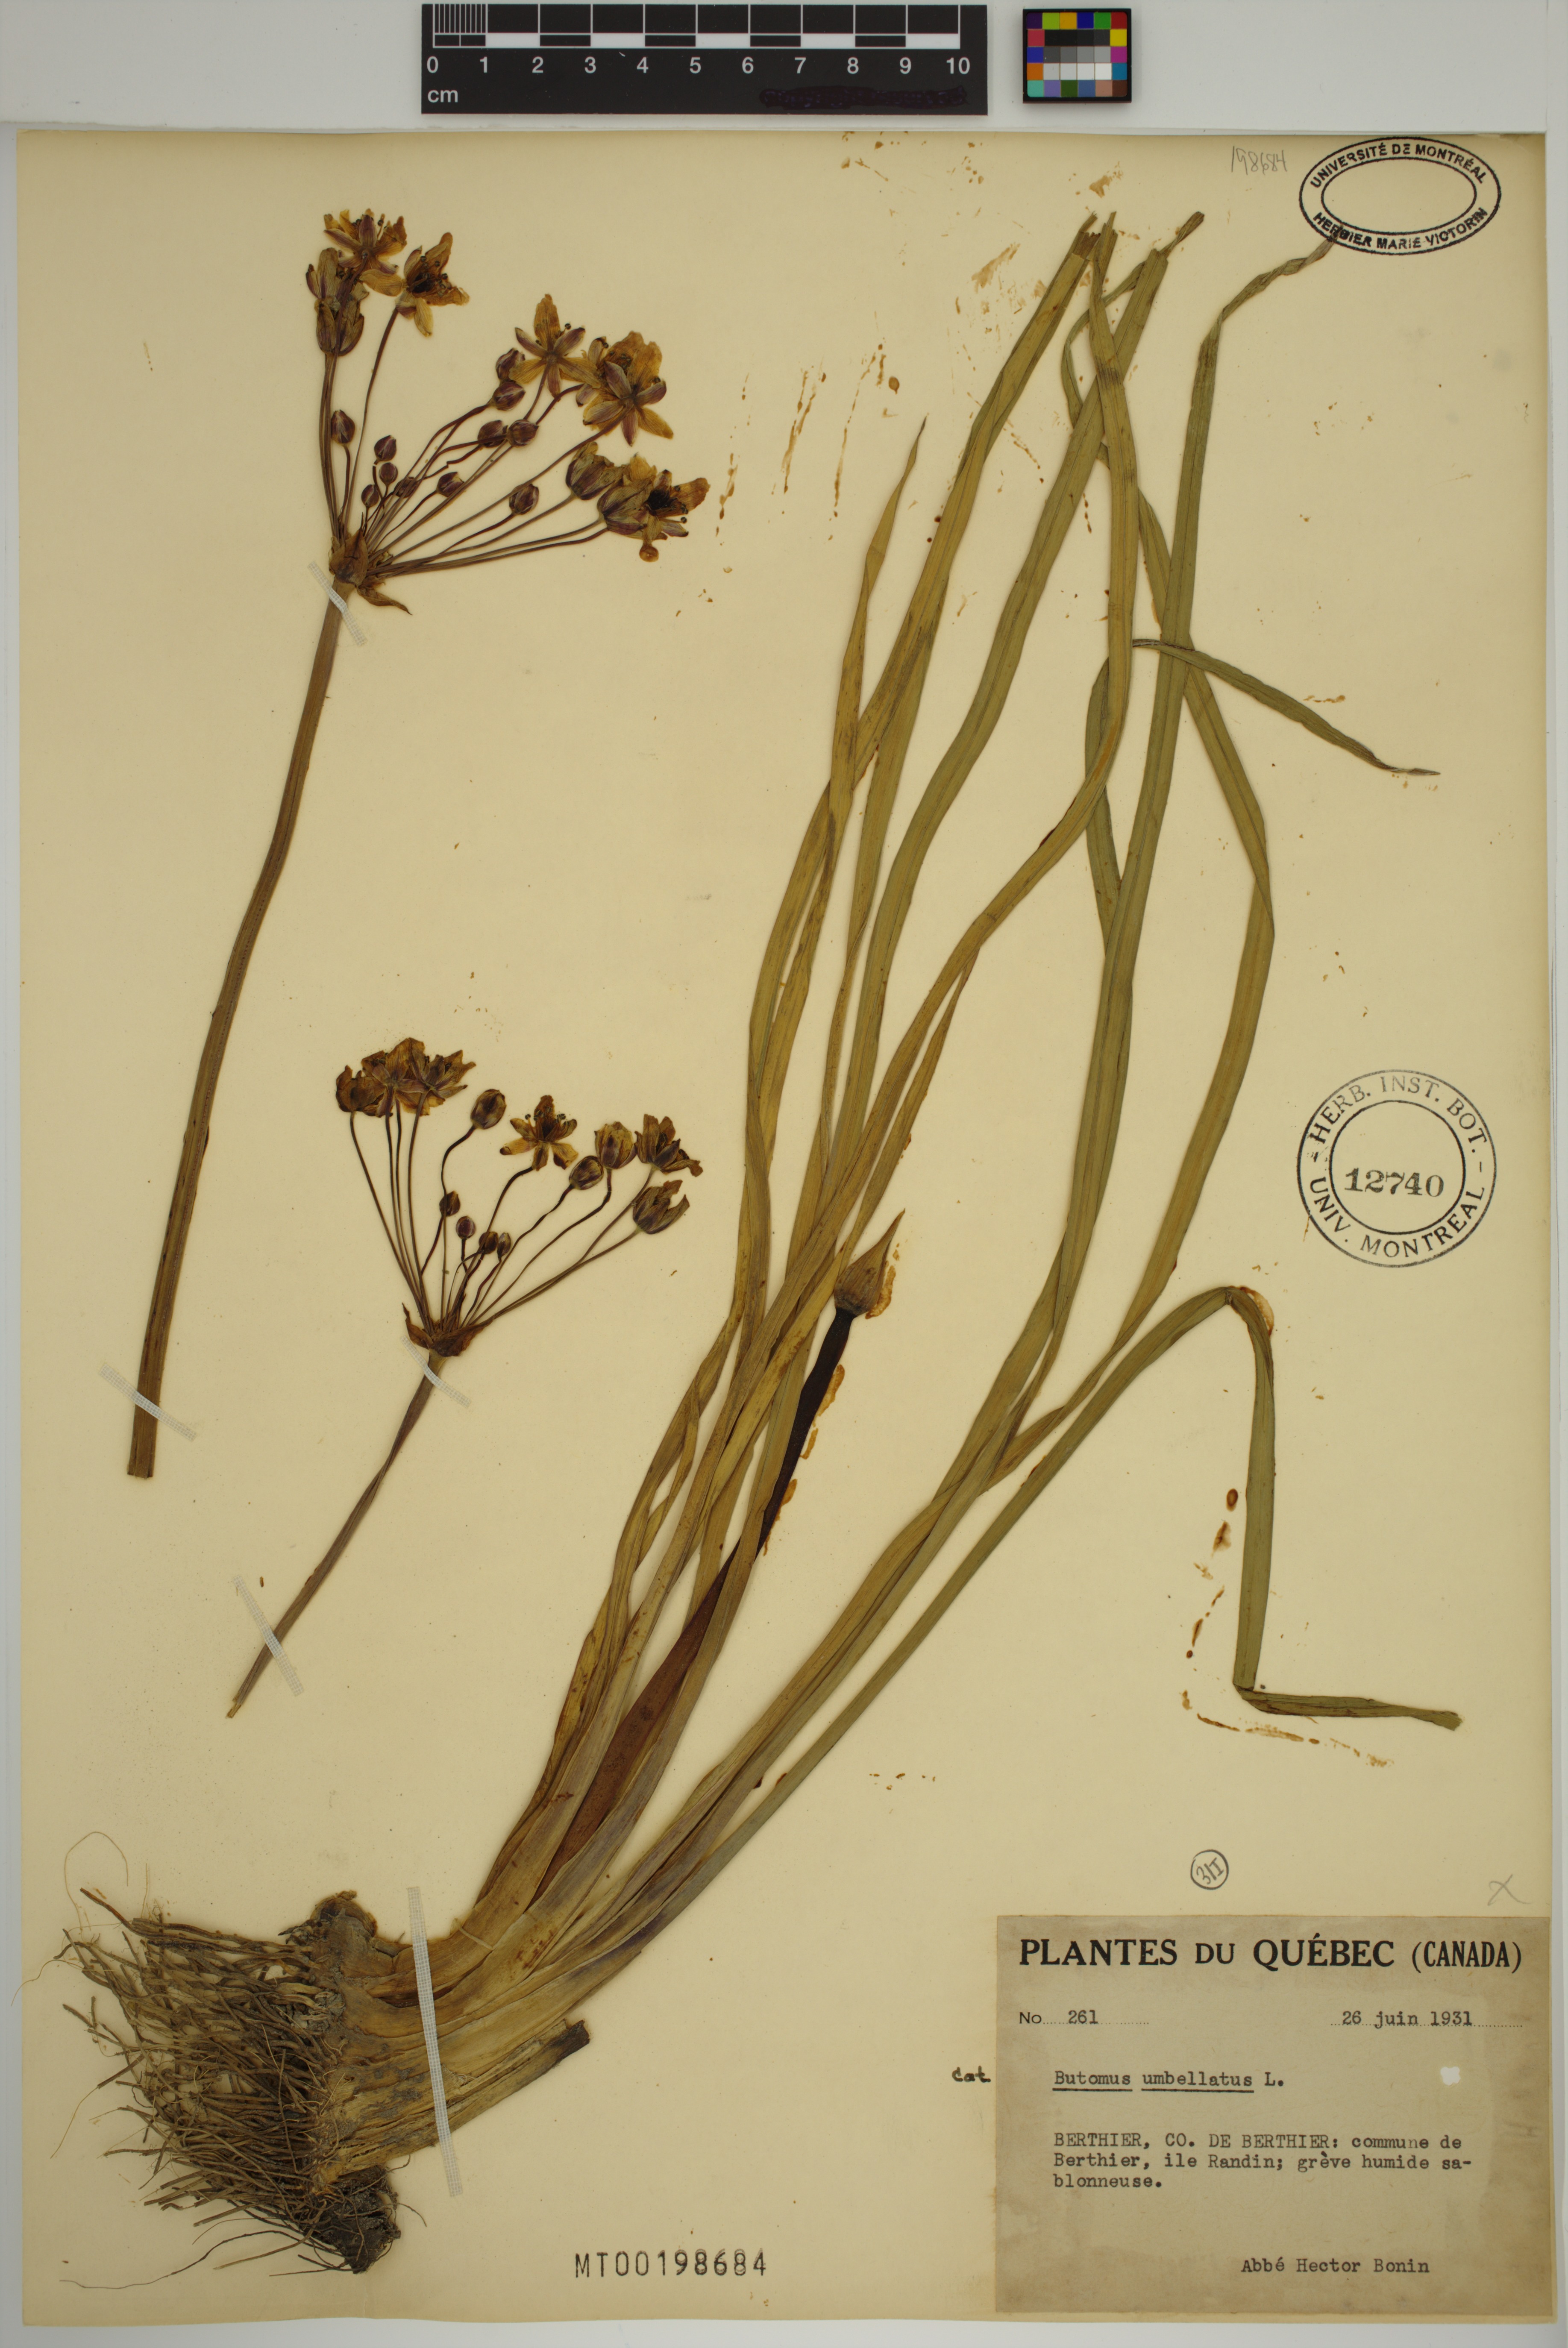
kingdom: Plantae
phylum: Tracheophyta
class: Liliopsida
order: Alismatales
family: Butomaceae
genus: Butomus
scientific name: Butomus umbellatus
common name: Flowering-rush
